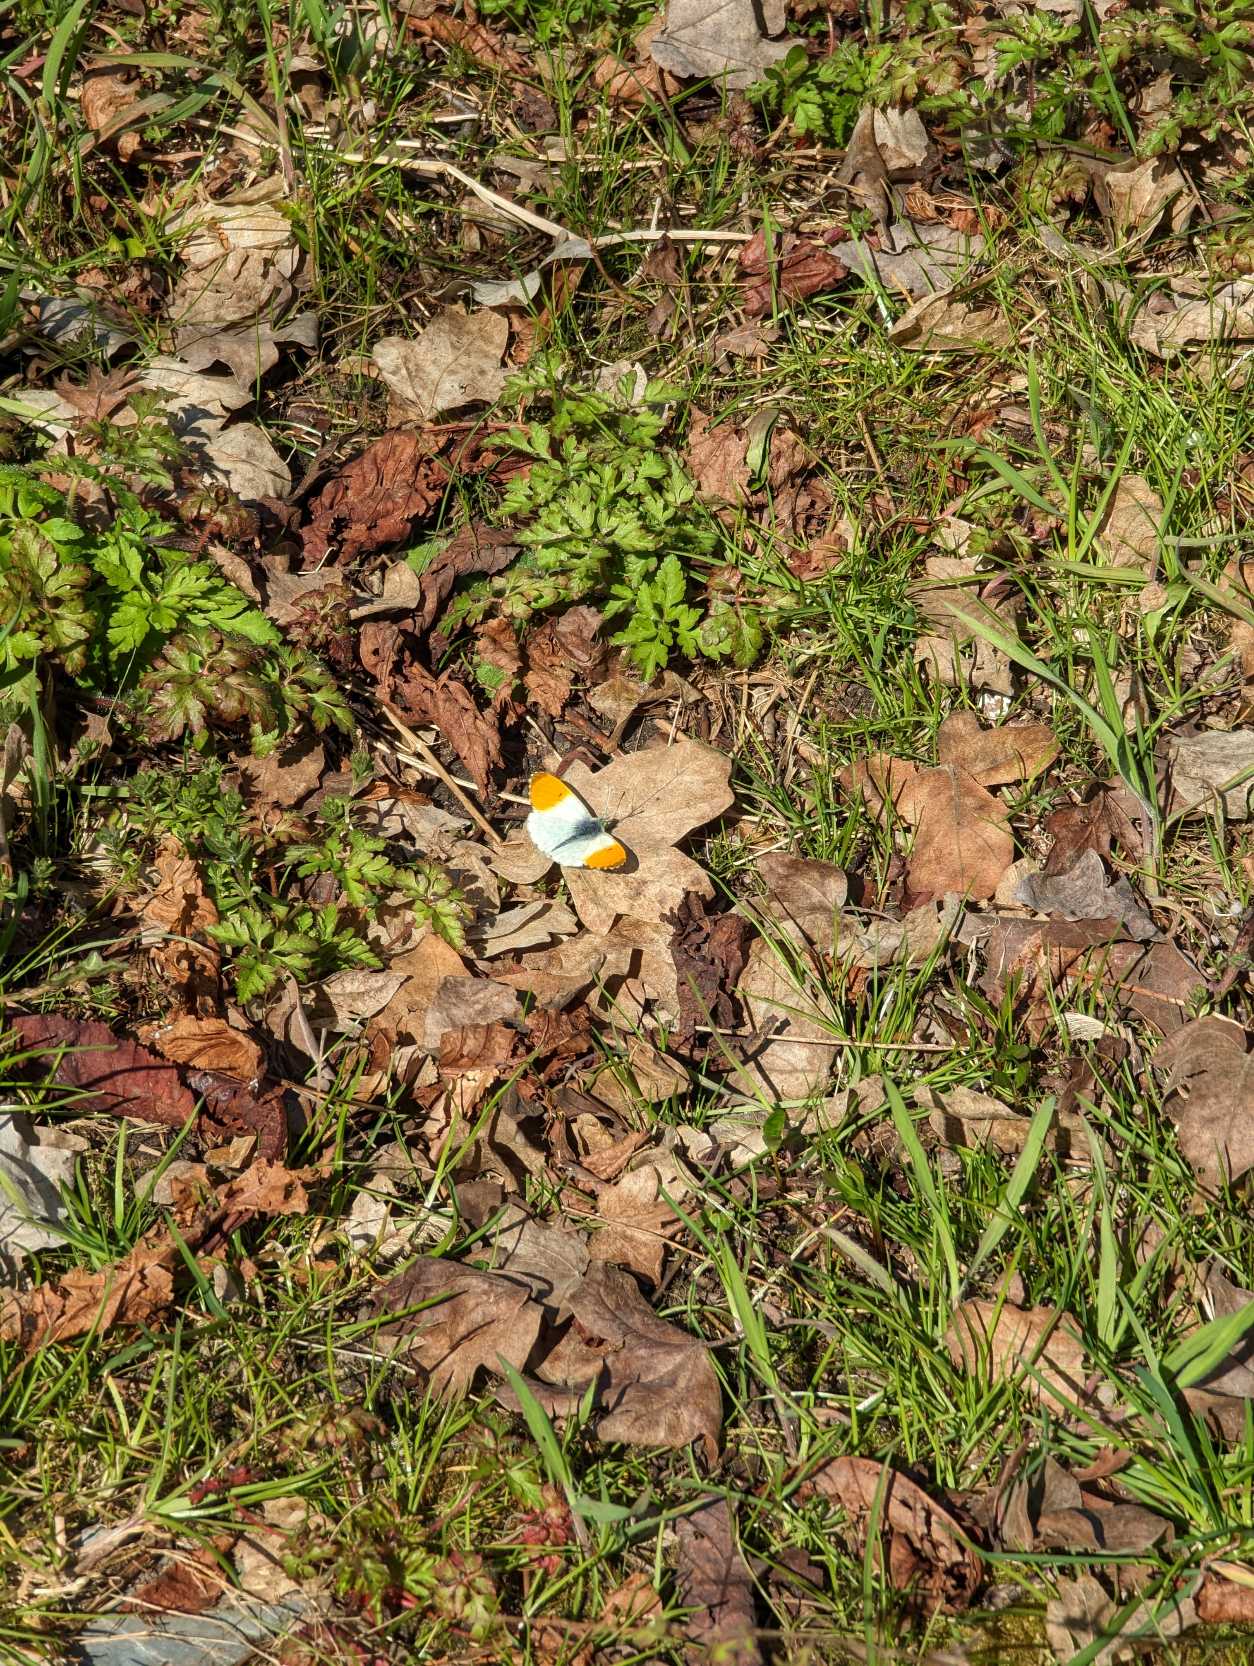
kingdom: Animalia
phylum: Arthropoda
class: Insecta
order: Lepidoptera
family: Pieridae
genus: Anthocharis
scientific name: Anthocharis cardamines
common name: Aurora
